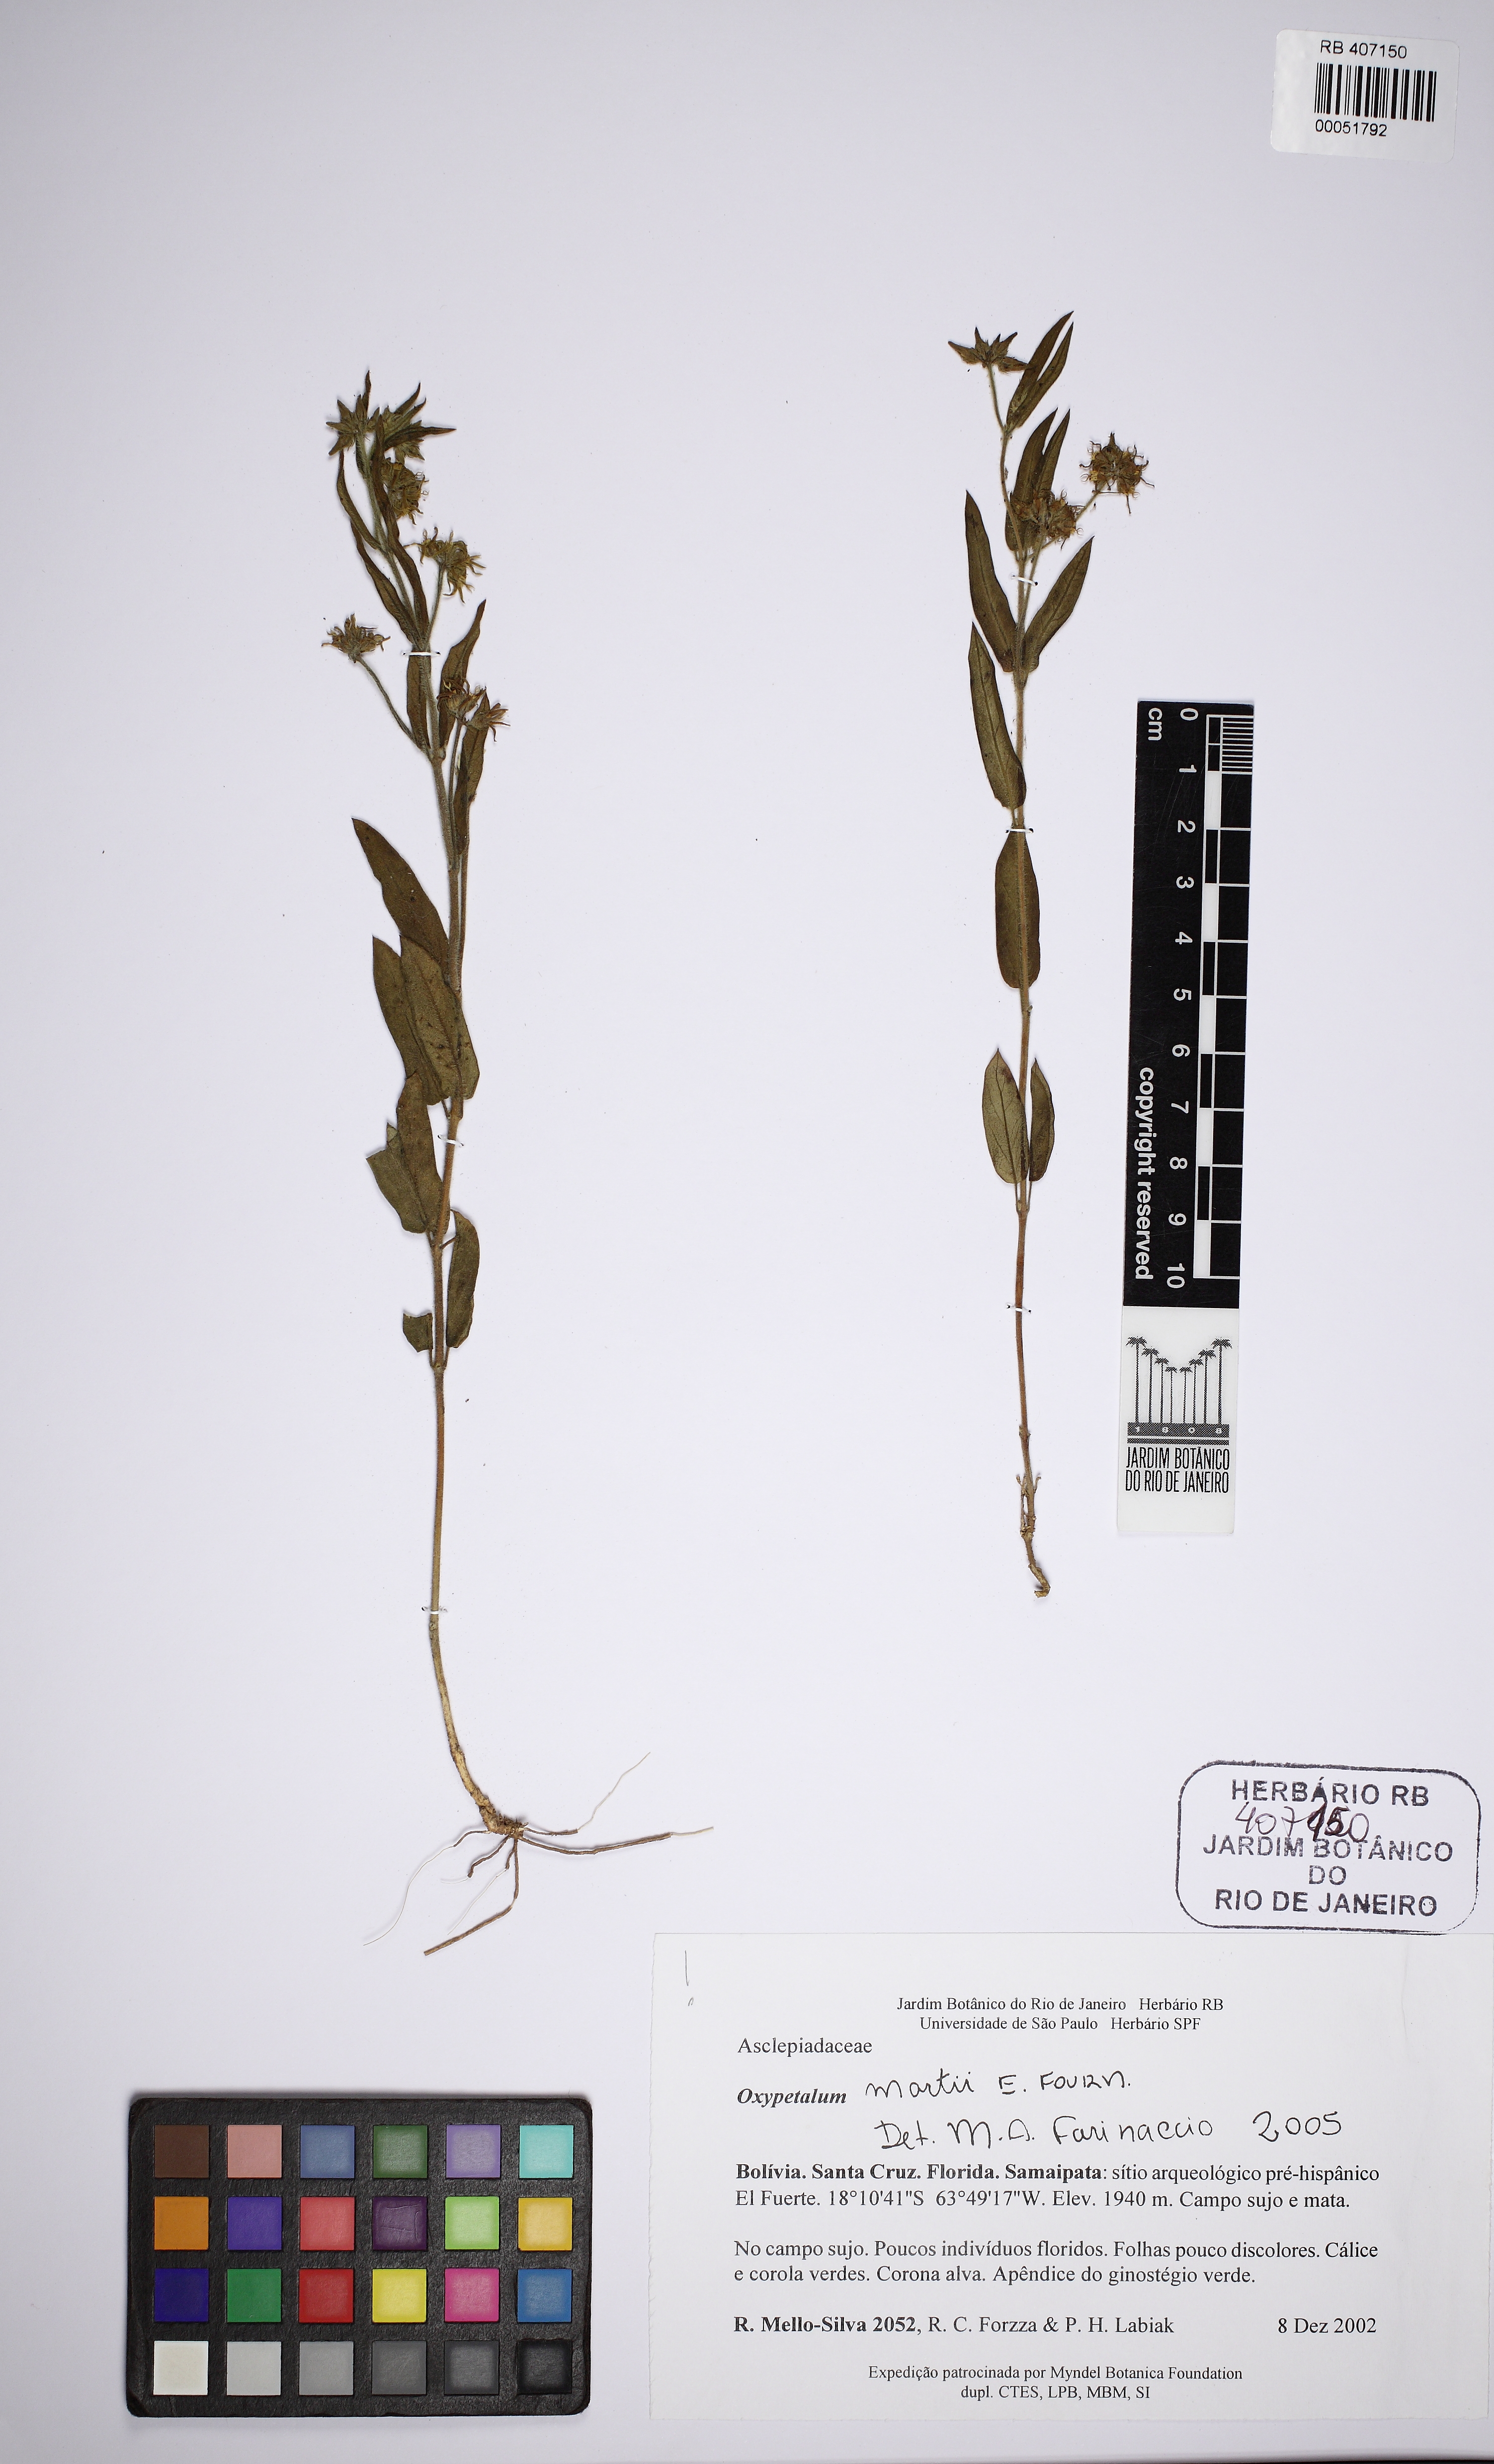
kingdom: Plantae
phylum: Tracheophyta
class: Magnoliopsida
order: Gentianales
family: Apocynaceae
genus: Oxypetalum
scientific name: Oxypetalum martii
